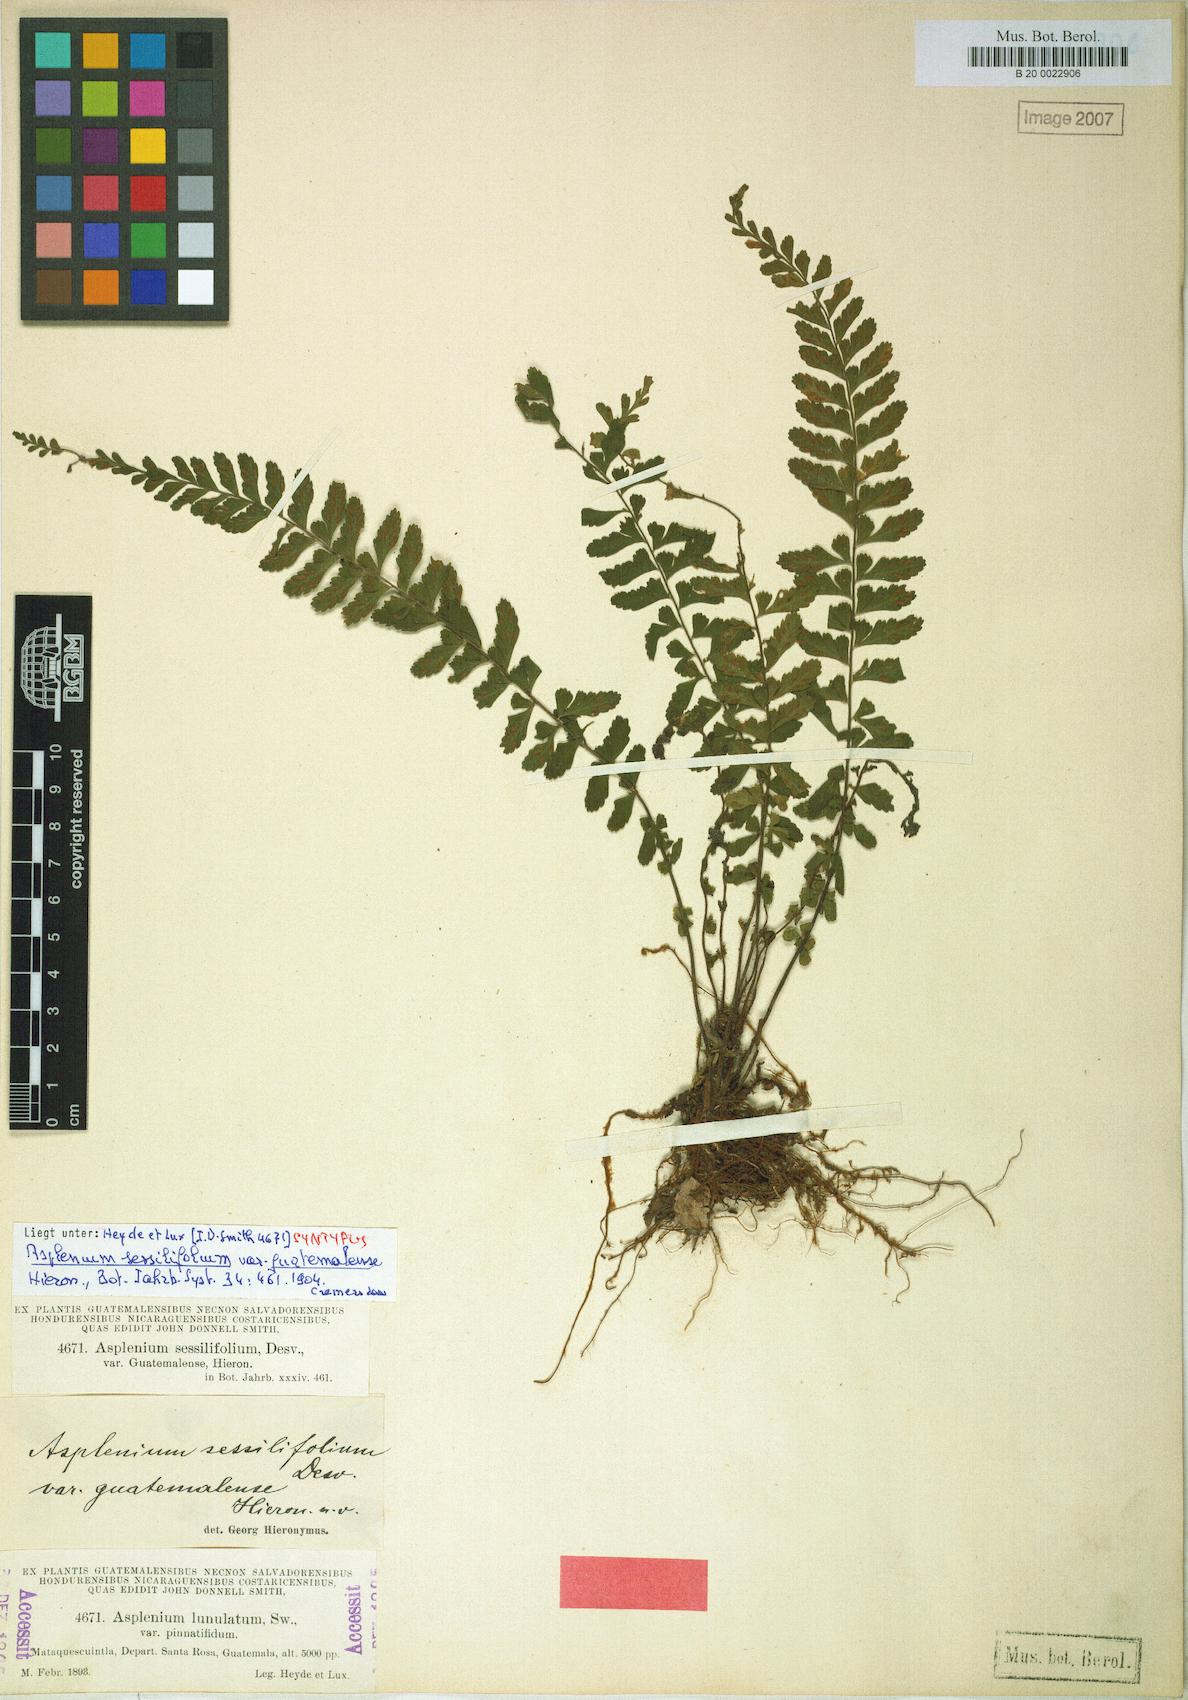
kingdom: Plantae
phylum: Tracheophyta
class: Polypodiopsida
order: Polypodiales
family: Aspleniaceae
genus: Asplenium
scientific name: Asplenium sessilifolium
